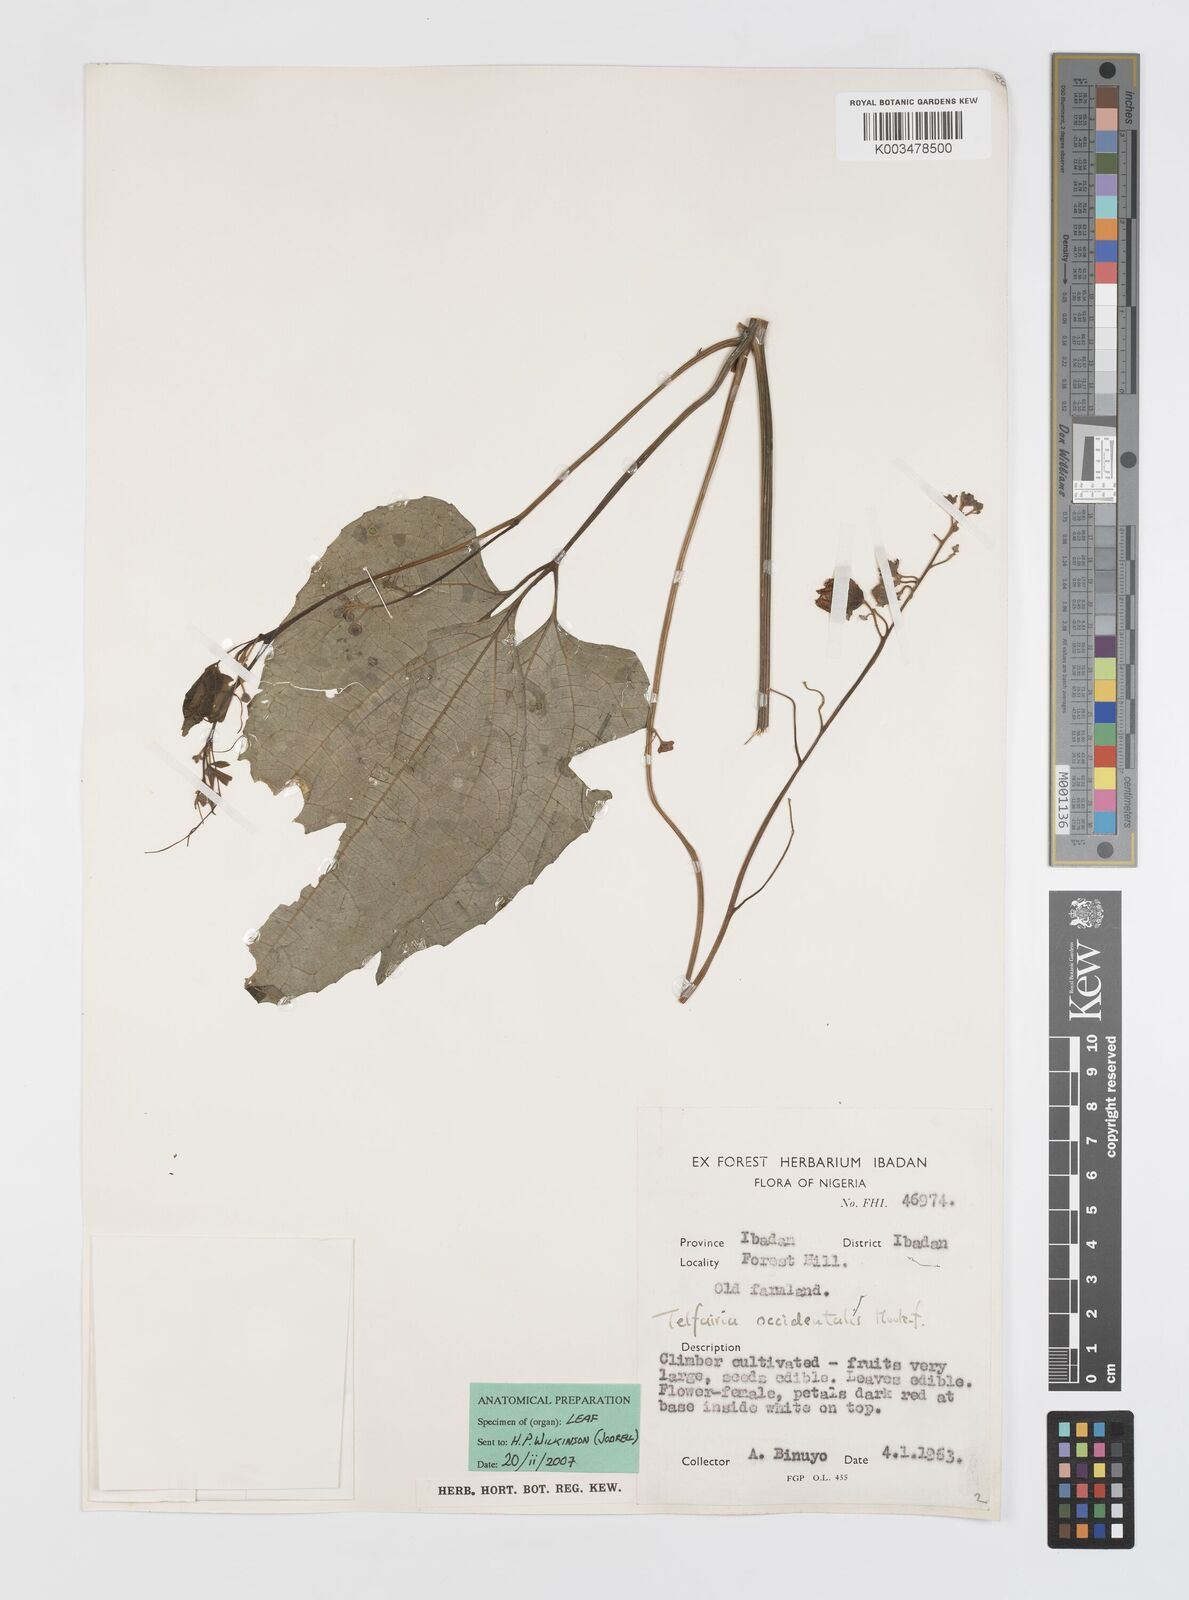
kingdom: Plantae
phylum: Tracheophyta
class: Magnoliopsida
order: Cucurbitales
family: Cucurbitaceae
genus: Telfairia
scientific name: Telfairia occidentalis
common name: Oysternut
